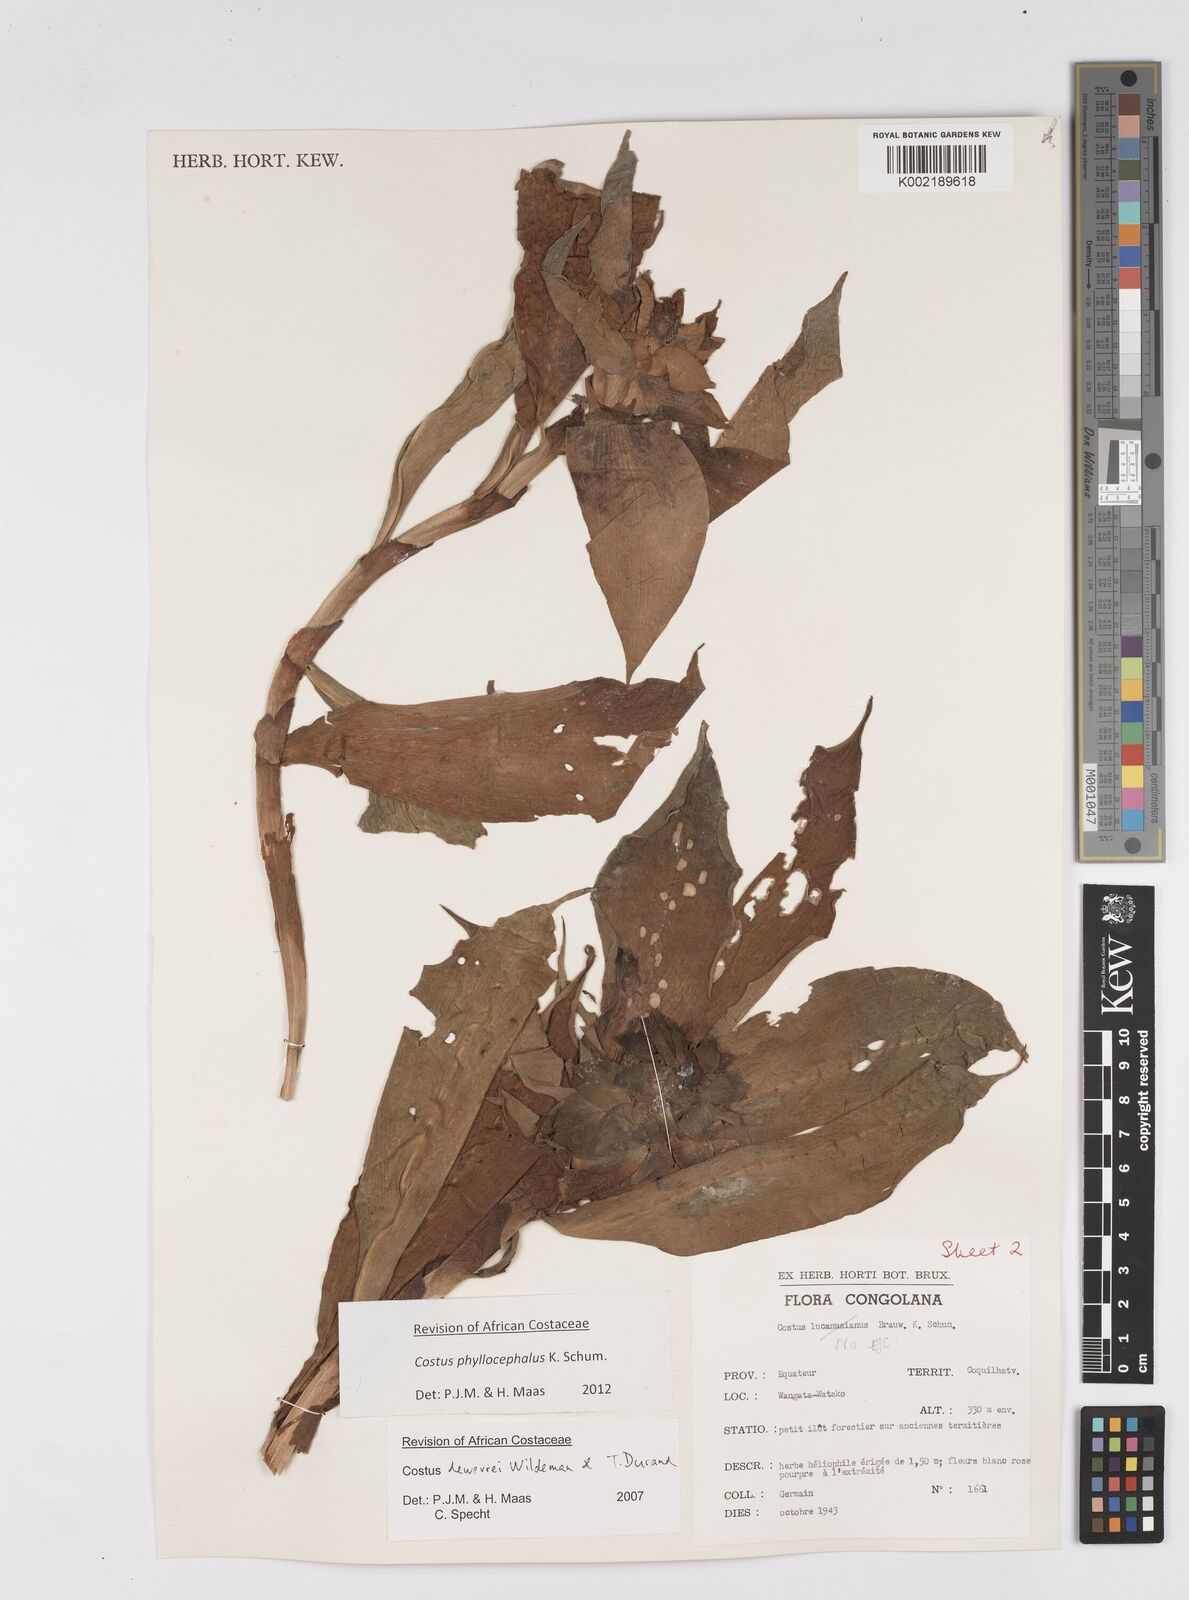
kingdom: Plantae
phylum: Tracheophyta
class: Liliopsida
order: Zingiberales
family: Costaceae
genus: Costus
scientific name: Costus phyllocephalus
